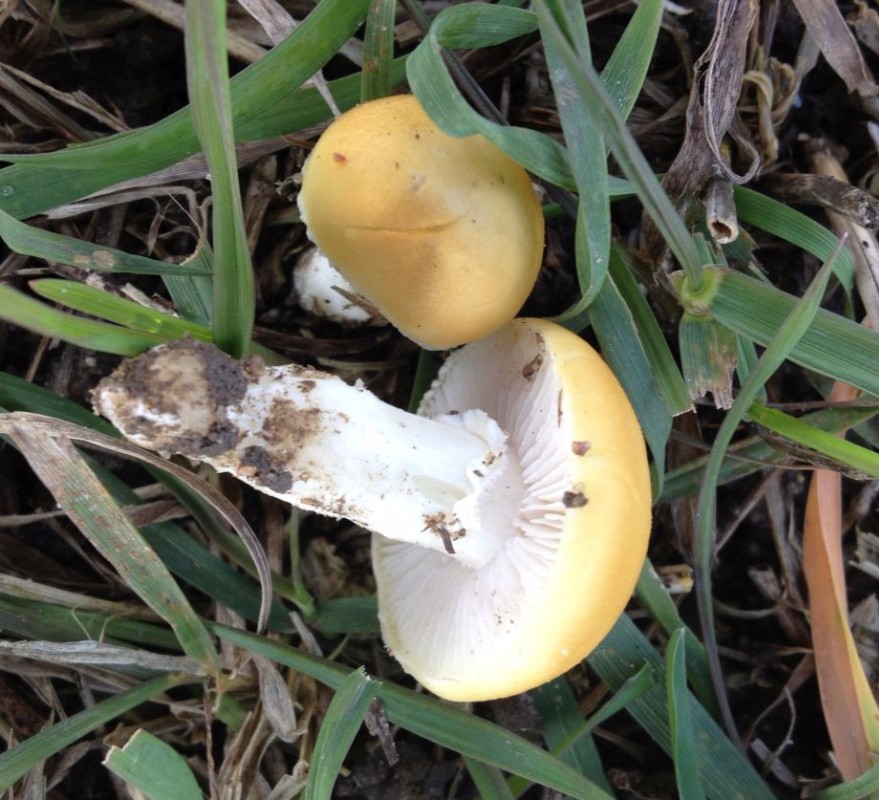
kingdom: Fungi
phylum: Basidiomycota
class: Agaricomycetes
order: Agaricales
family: Hymenogastraceae
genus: Psilocybe
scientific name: Psilocybe coronilla
